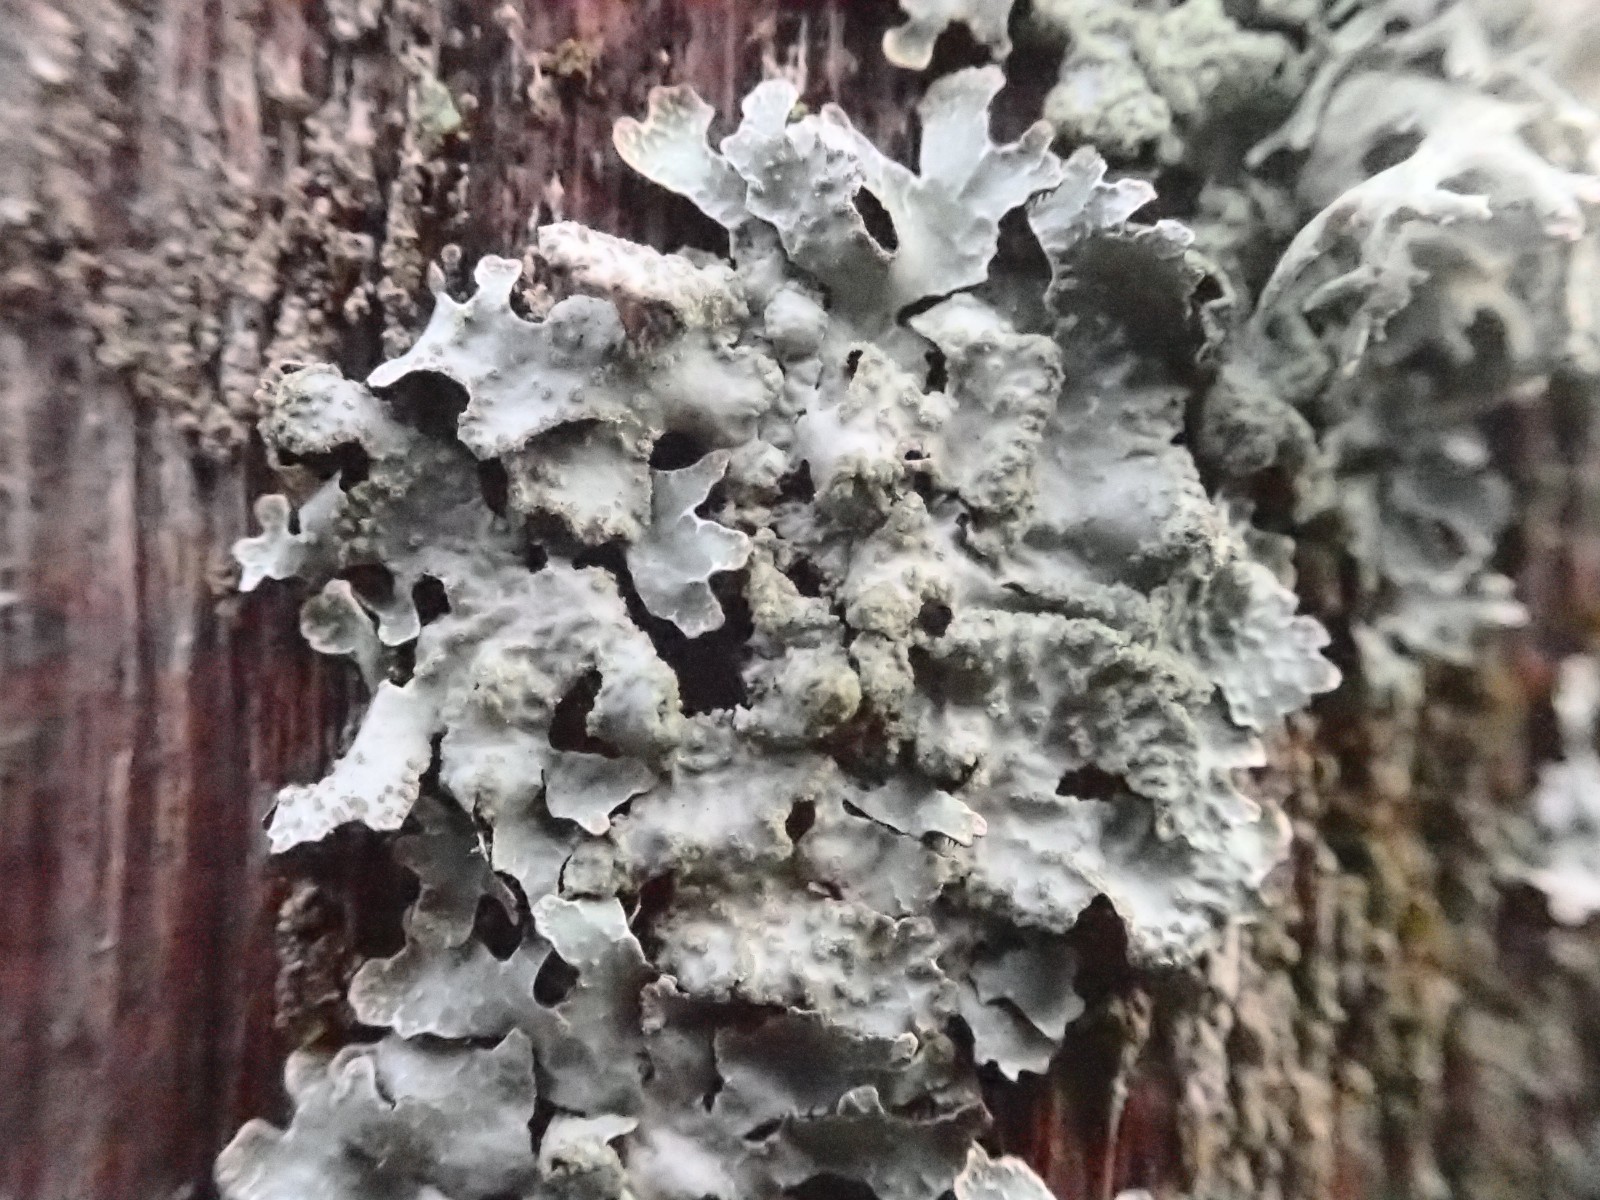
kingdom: Fungi
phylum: Ascomycota
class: Lecanoromycetes
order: Lecanorales
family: Parmeliaceae
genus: Parmelia
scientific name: Parmelia sulcata
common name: rynket skållav
